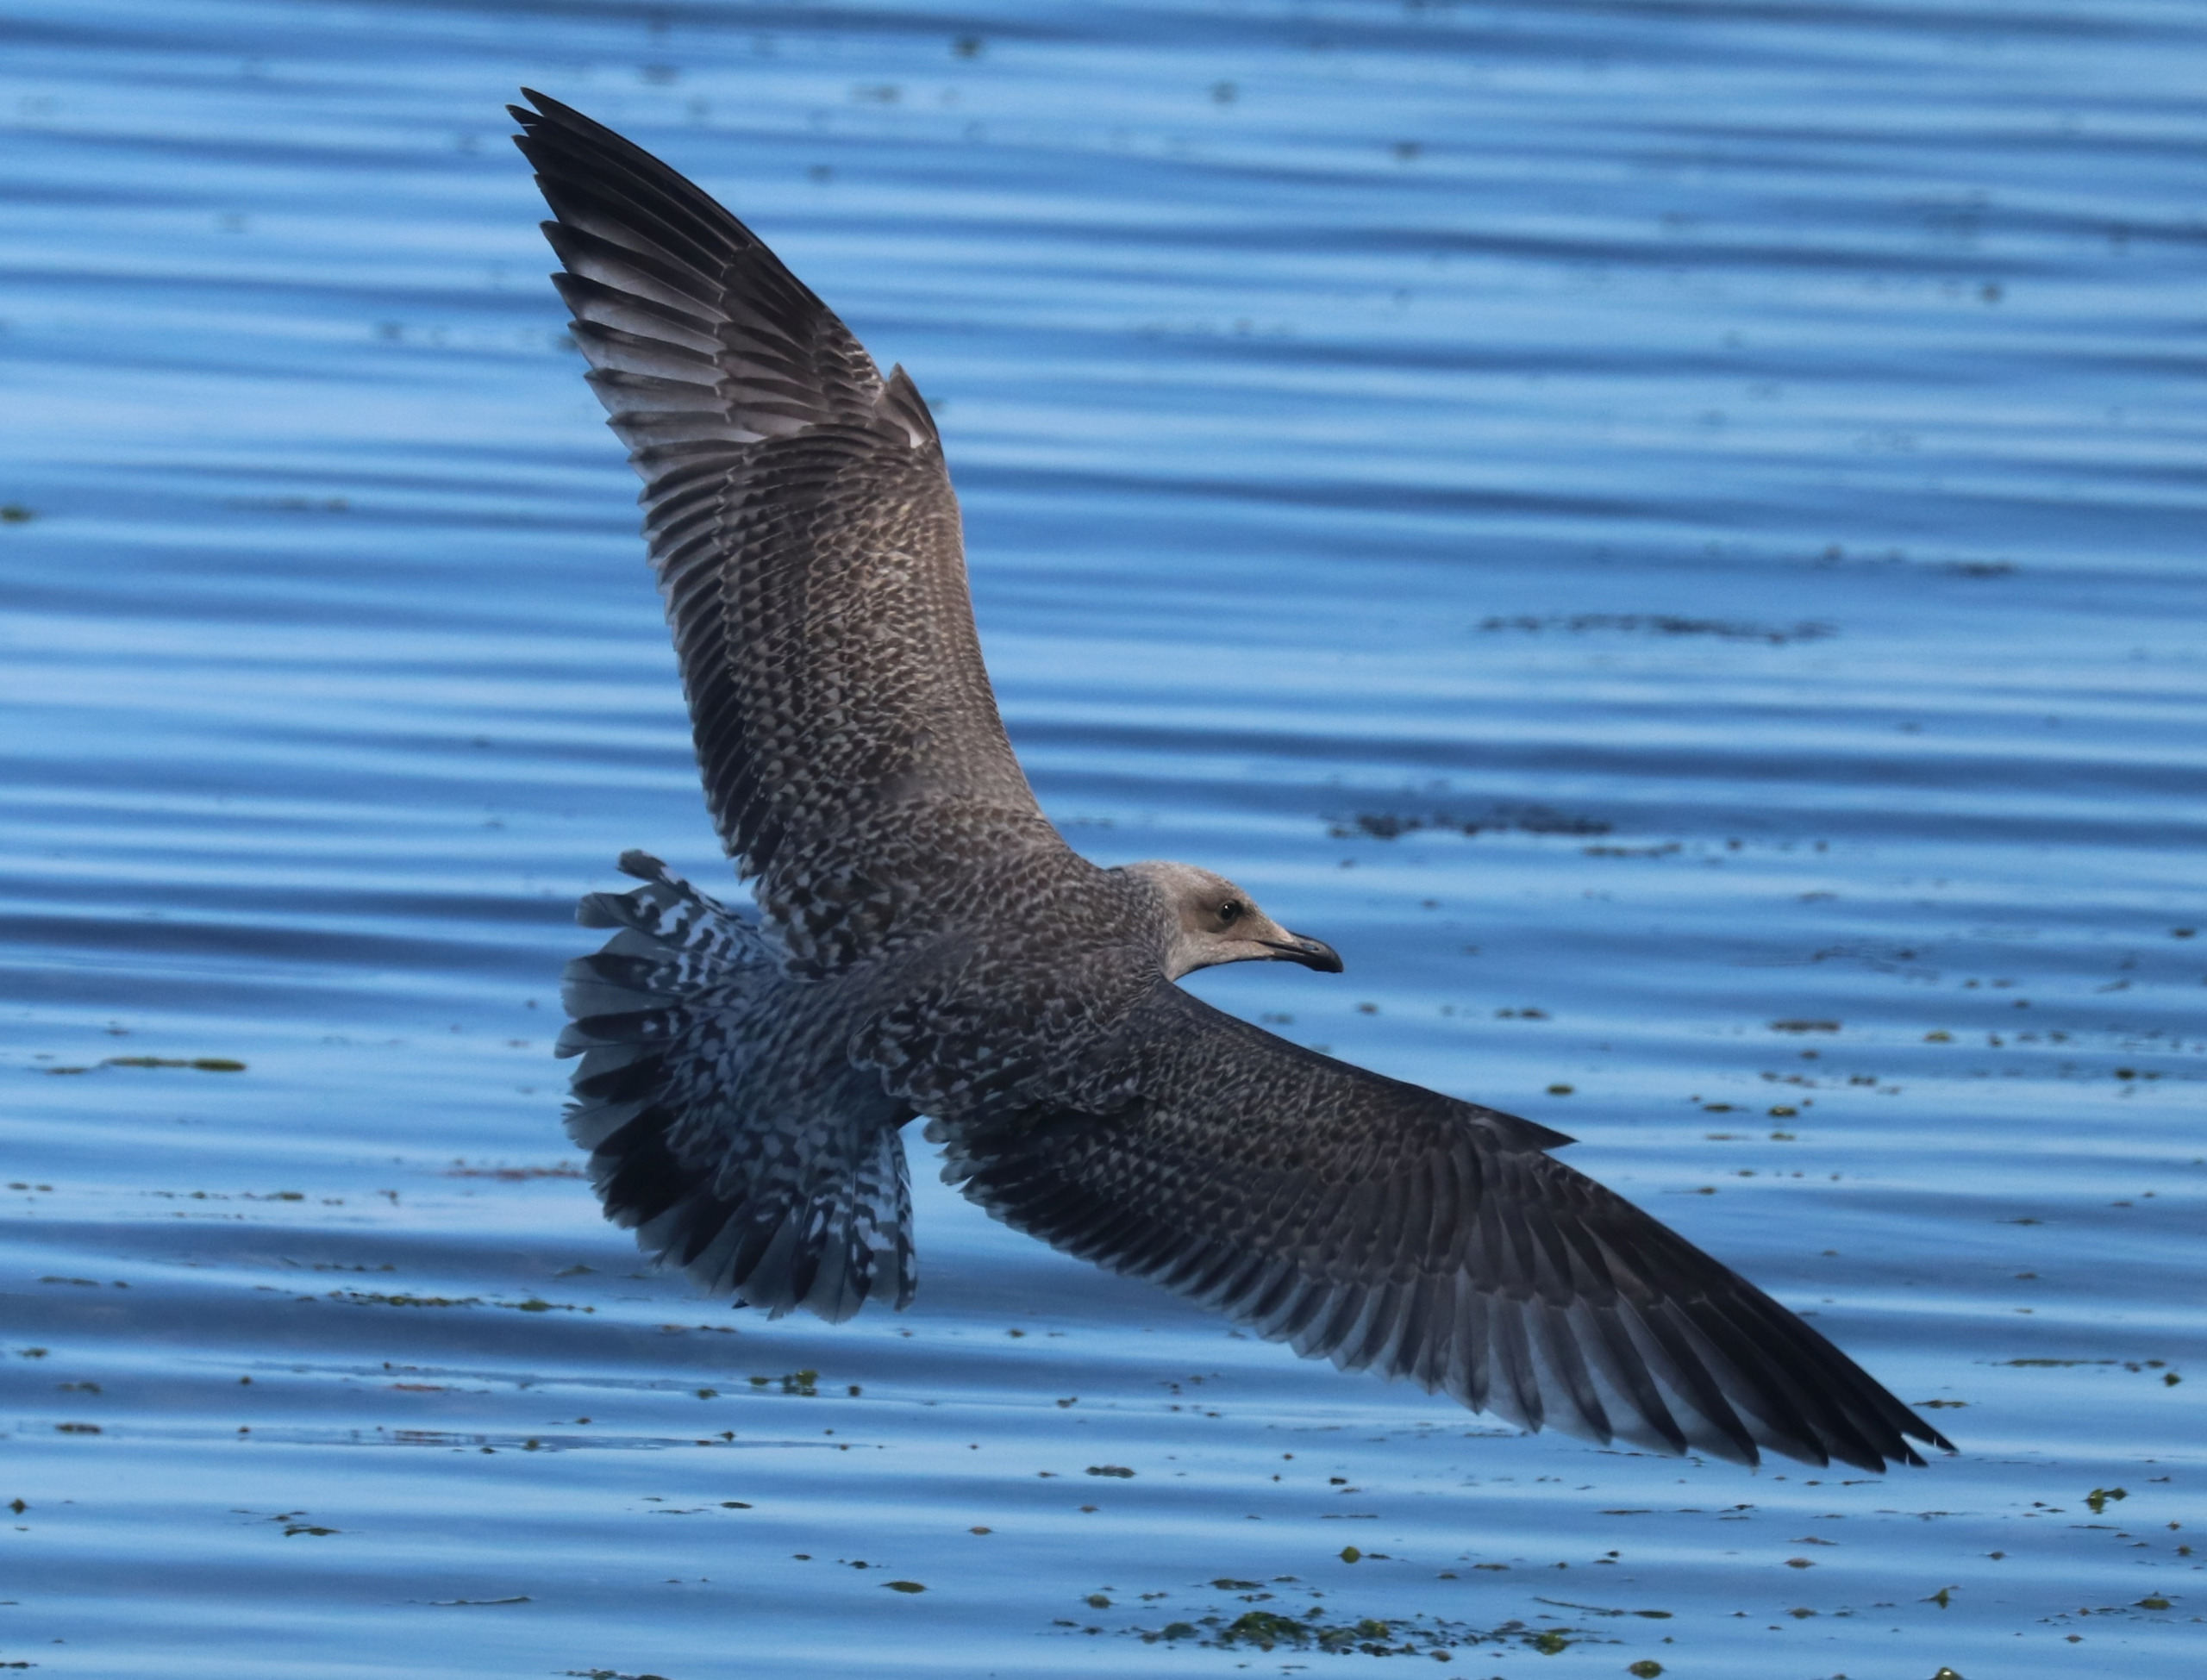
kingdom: Animalia
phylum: Chordata
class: Aves
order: Charadriiformes
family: Laridae
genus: Larus
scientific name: Larus argentatus
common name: Sølvmåge
